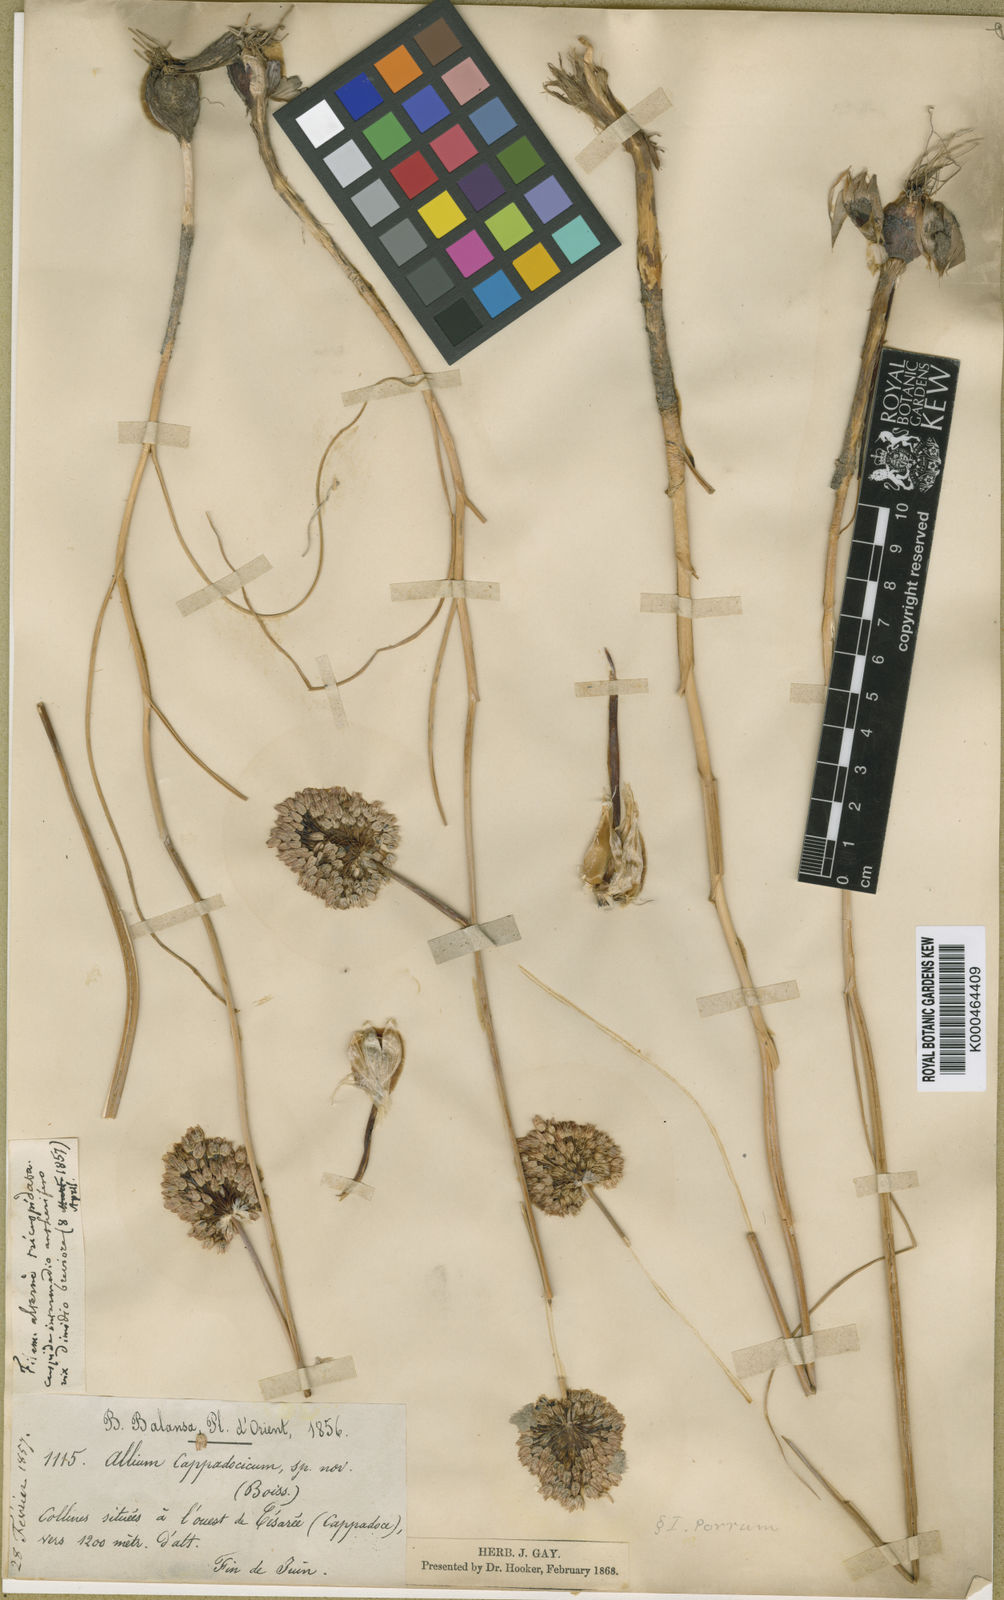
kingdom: Plantae
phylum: Tracheophyta
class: Liliopsida
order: Asparagales
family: Amaryllidaceae
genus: Allium
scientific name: Allium cappadocicum
